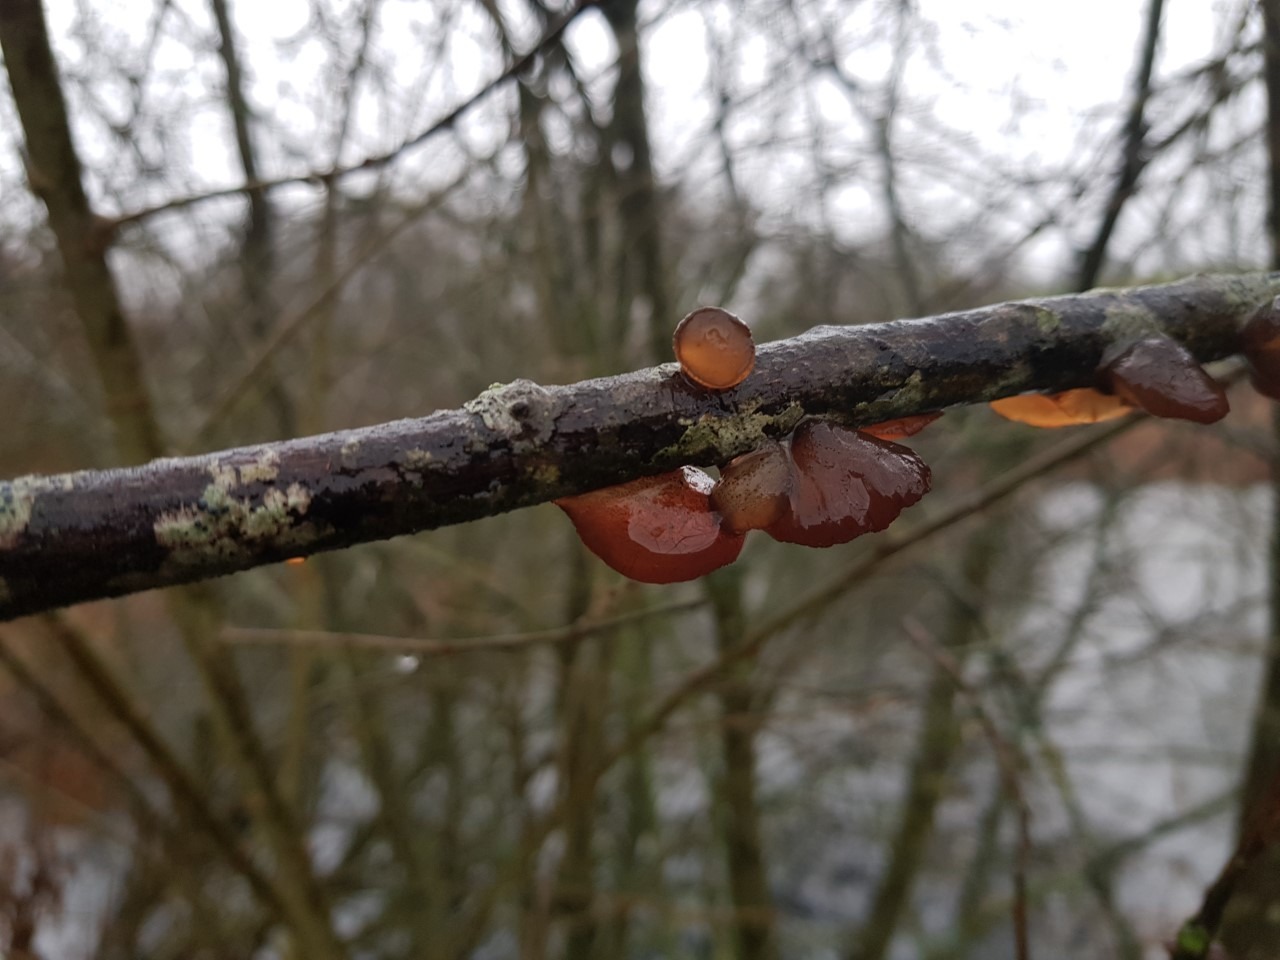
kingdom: Fungi
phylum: Basidiomycota
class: Agaricomycetes
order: Auriculariales
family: Auriculariaceae
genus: Exidia
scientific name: Exidia recisa
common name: Pile-bævretop
